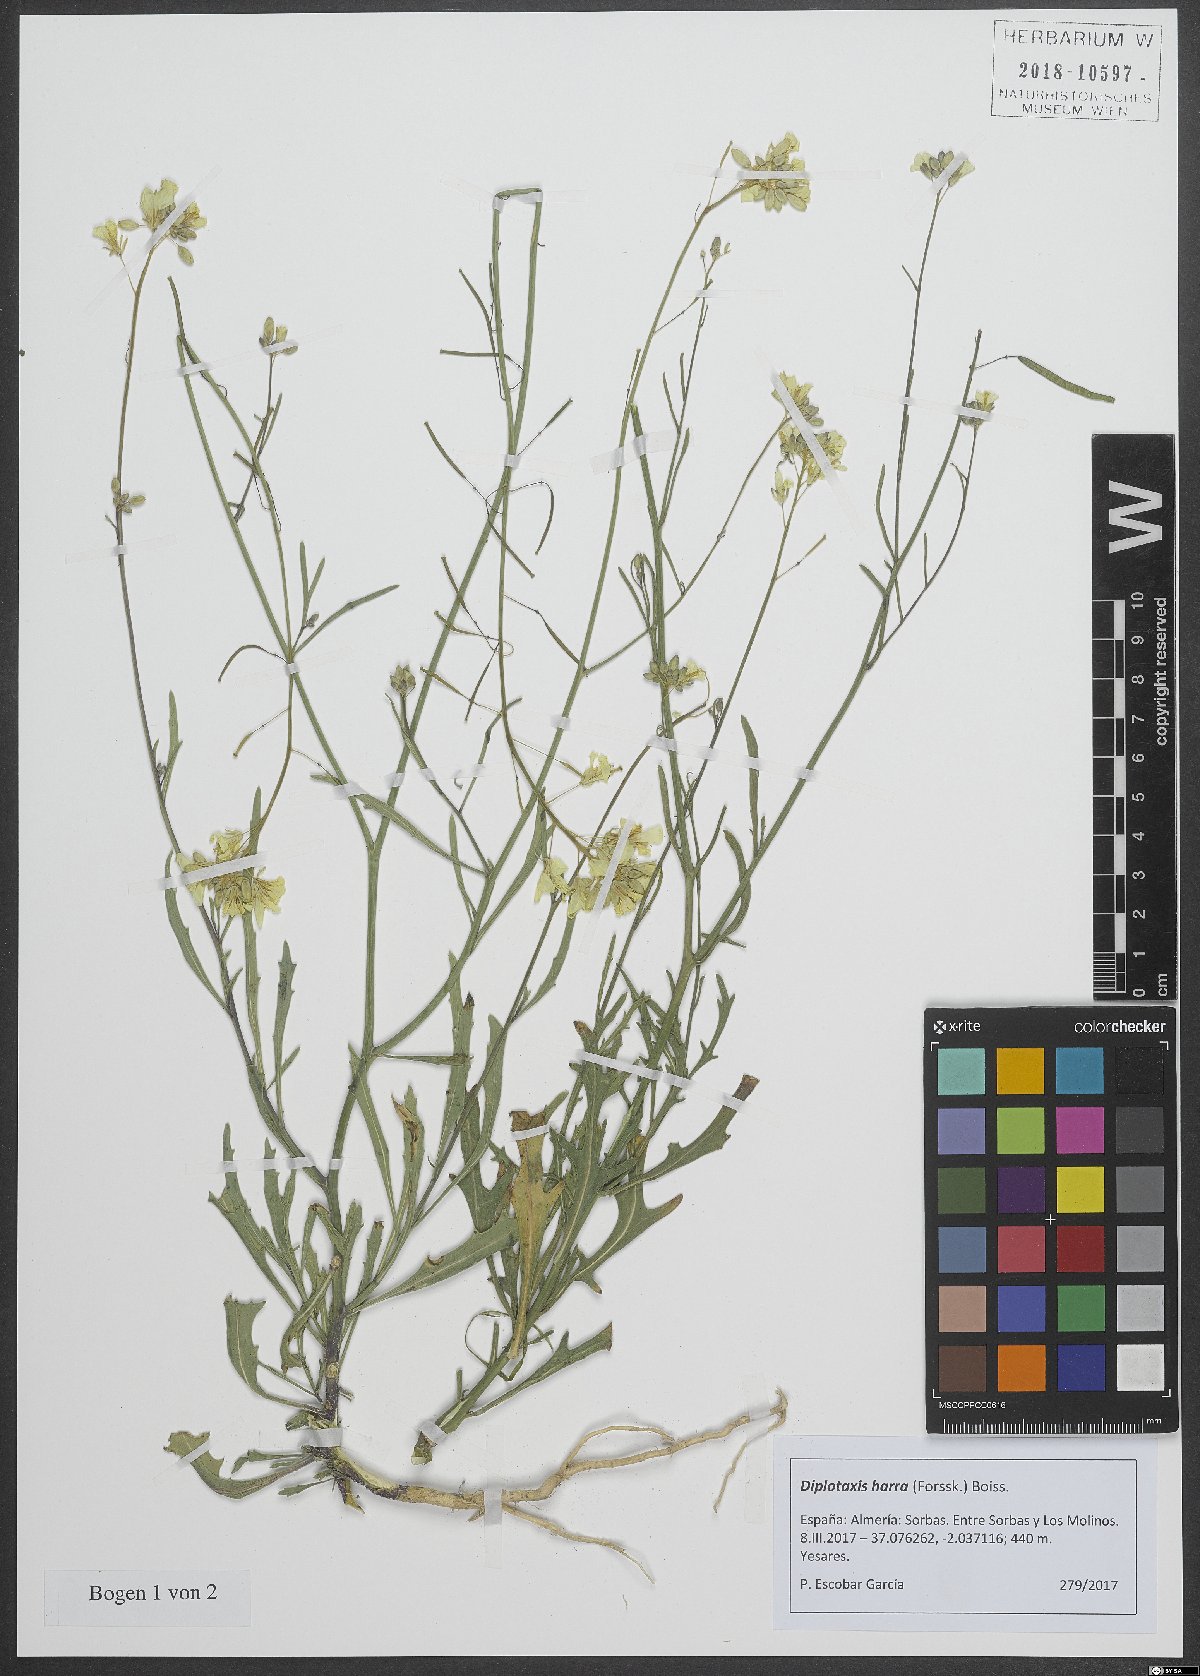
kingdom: Plantae
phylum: Tracheophyta
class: Magnoliopsida
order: Brassicales
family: Brassicaceae
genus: Diplotaxis
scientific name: Diplotaxis harra
